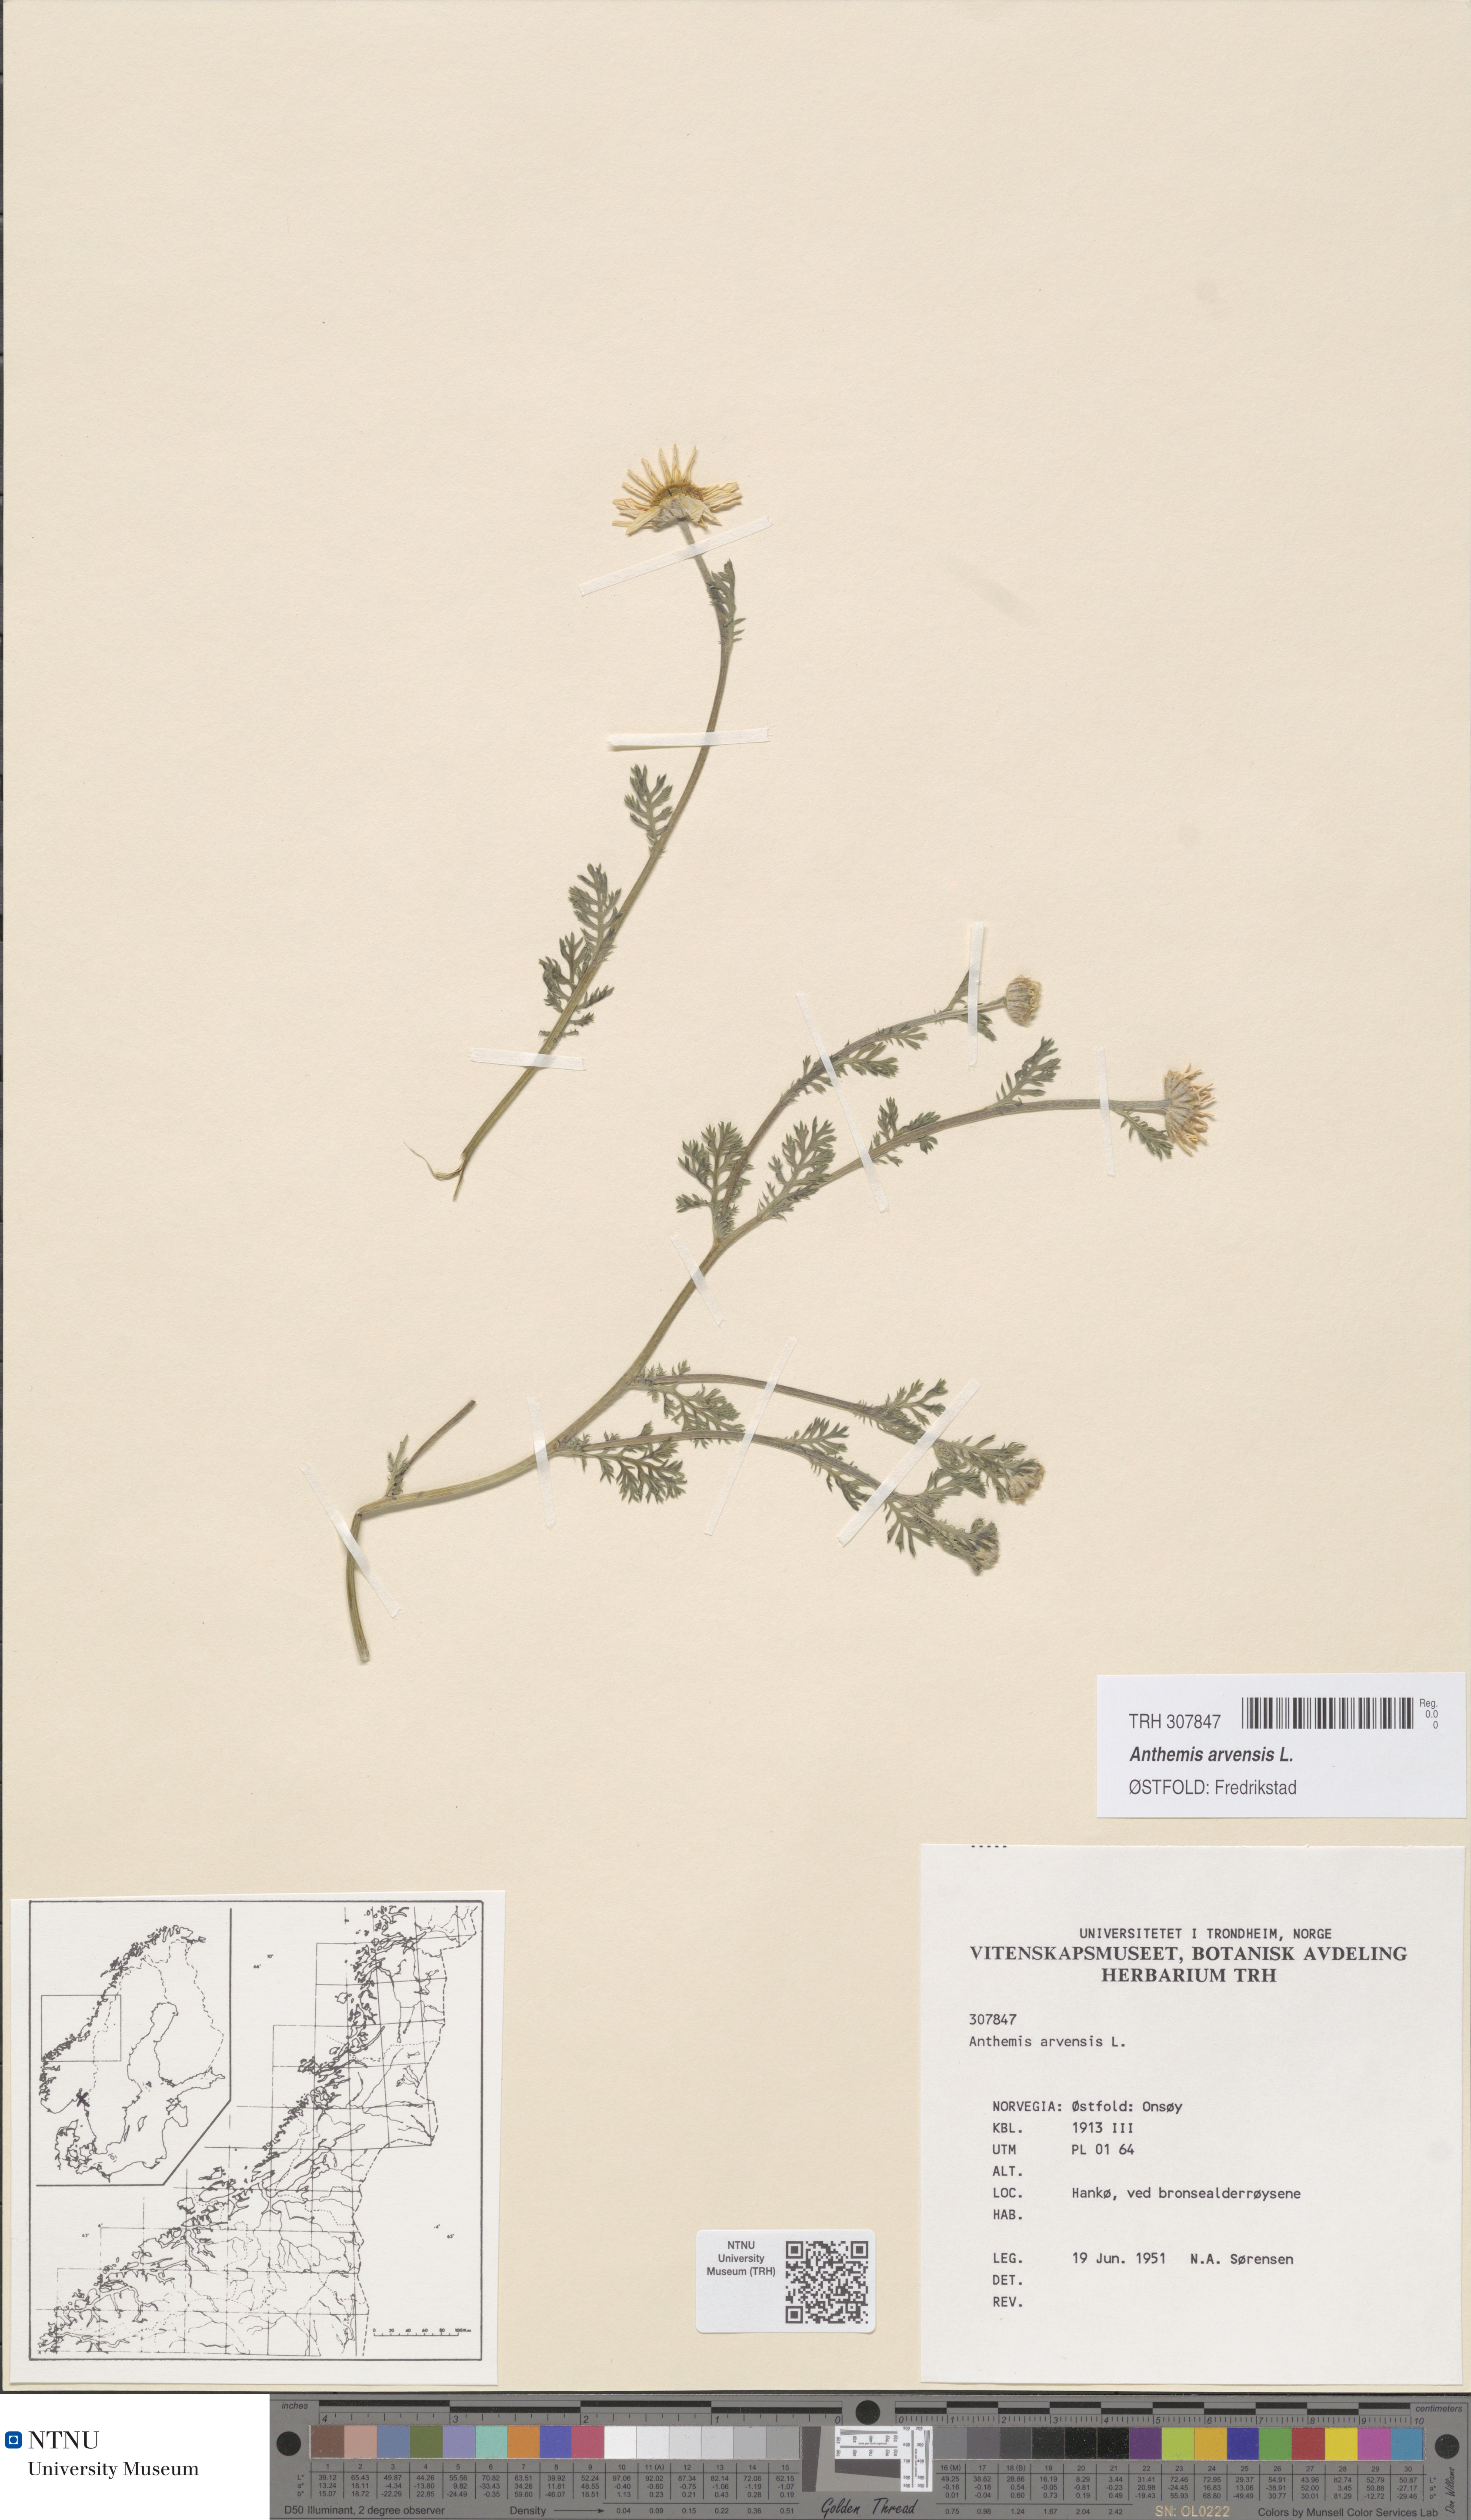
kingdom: Plantae
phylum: Tracheophyta
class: Magnoliopsida
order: Asterales
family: Asteraceae
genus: Anthemis
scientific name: Anthemis arvensis
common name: Corn chamomile
